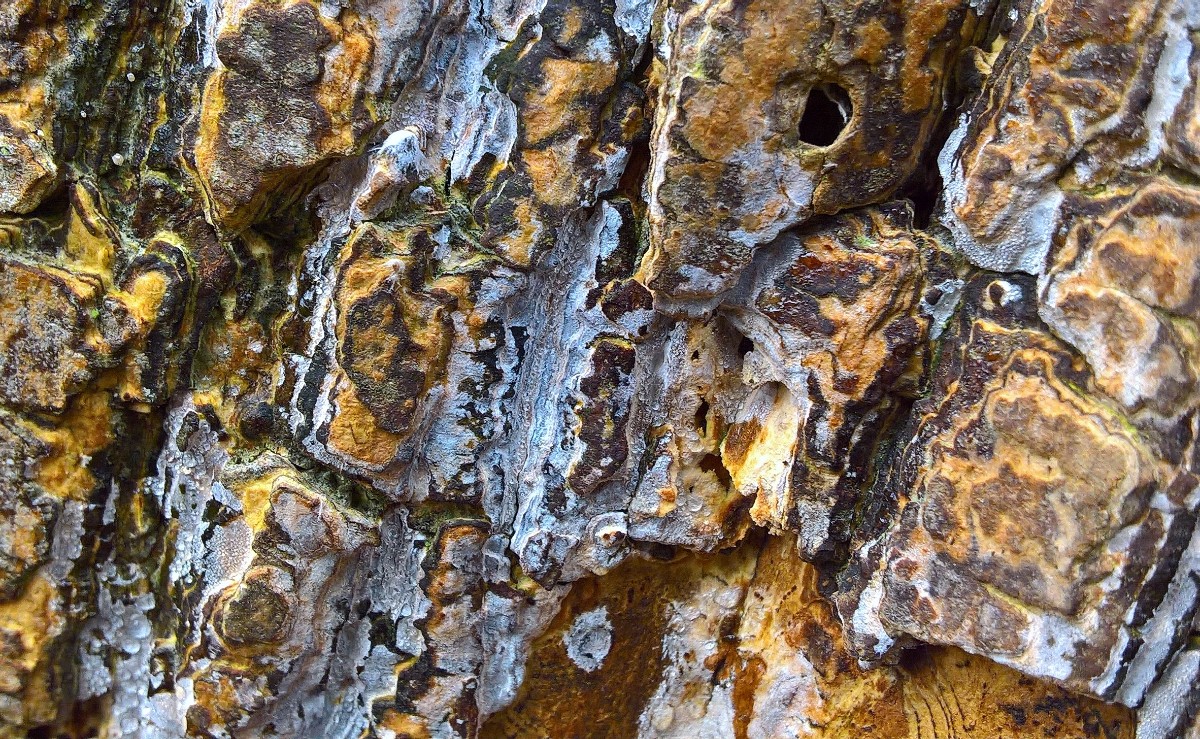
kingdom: Fungi
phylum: Basidiomycota
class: Agaricomycetes
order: Agaricales
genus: Dendrothele
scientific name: Dendrothele acerina
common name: navr-kalkplet
